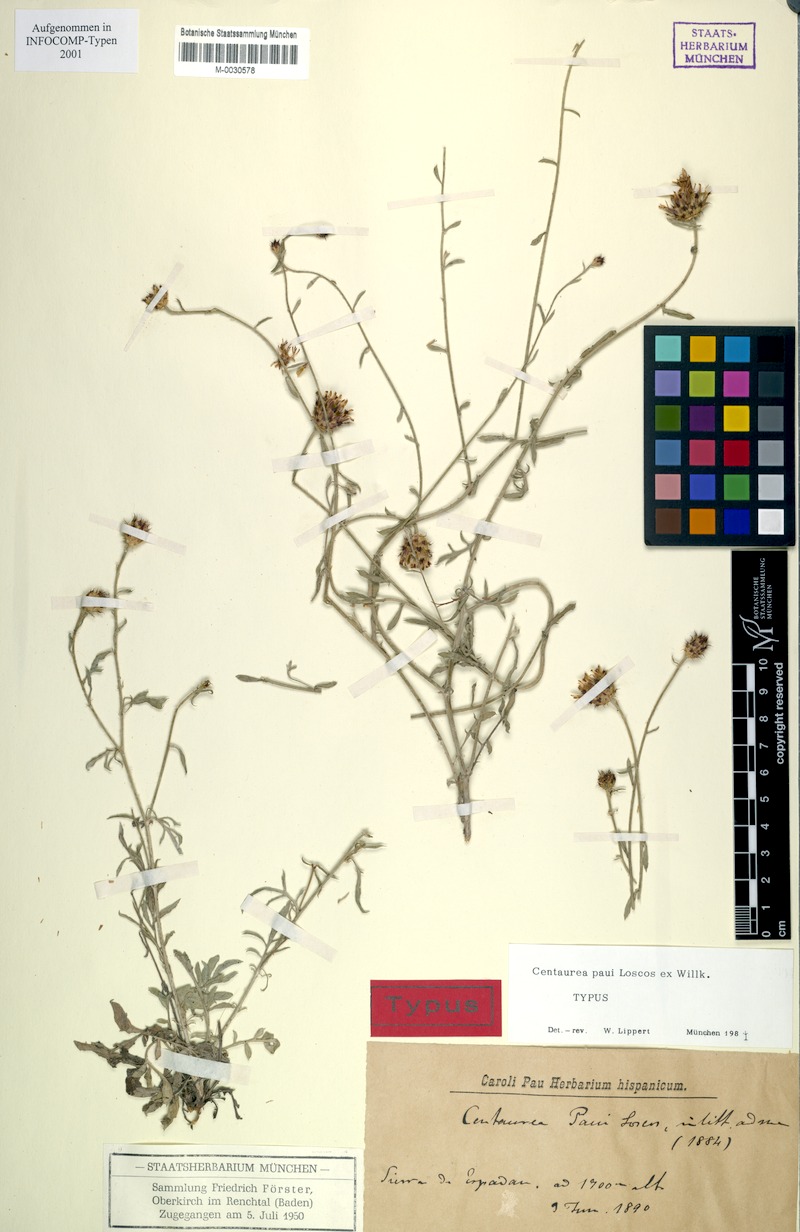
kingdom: Plantae
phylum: Tracheophyta
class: Magnoliopsida
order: Asterales
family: Asteraceae
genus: Centaurea
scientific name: Centaurea paui
